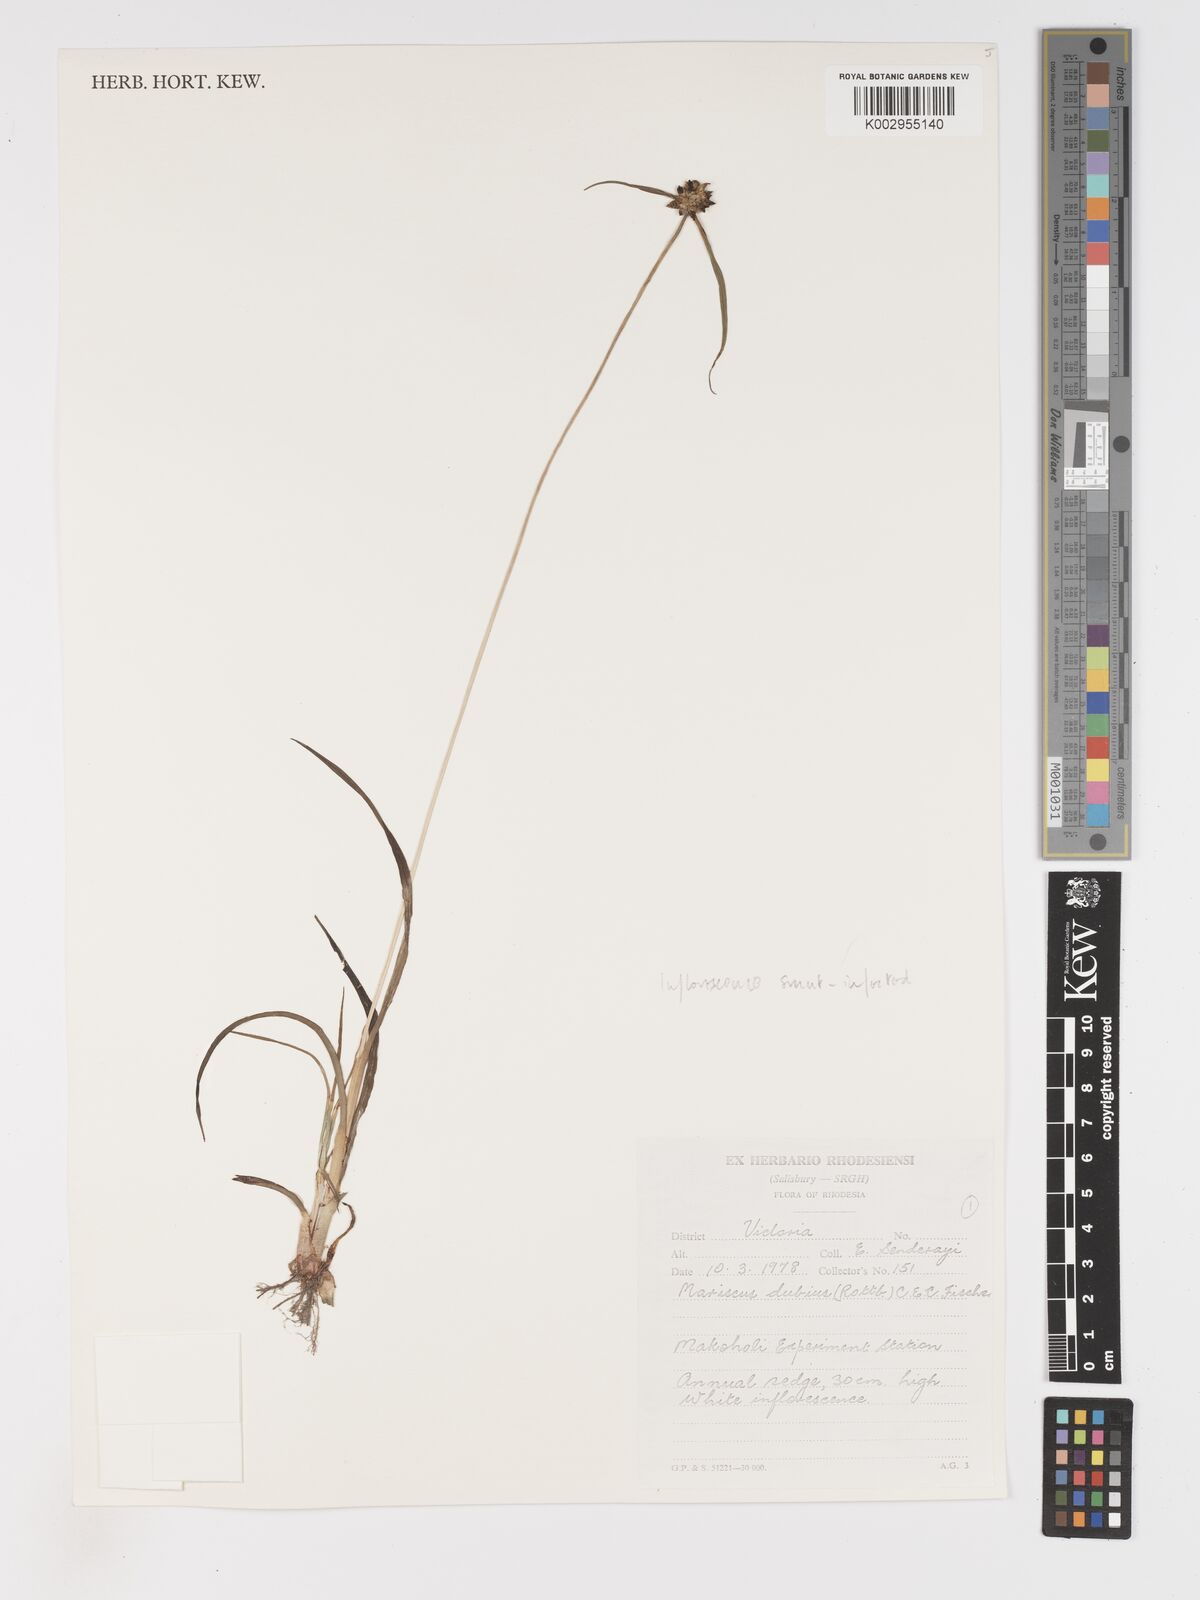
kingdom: Plantae
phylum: Tracheophyta
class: Liliopsida
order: Poales
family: Cyperaceae
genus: Cyperus
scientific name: Cyperus dubius
